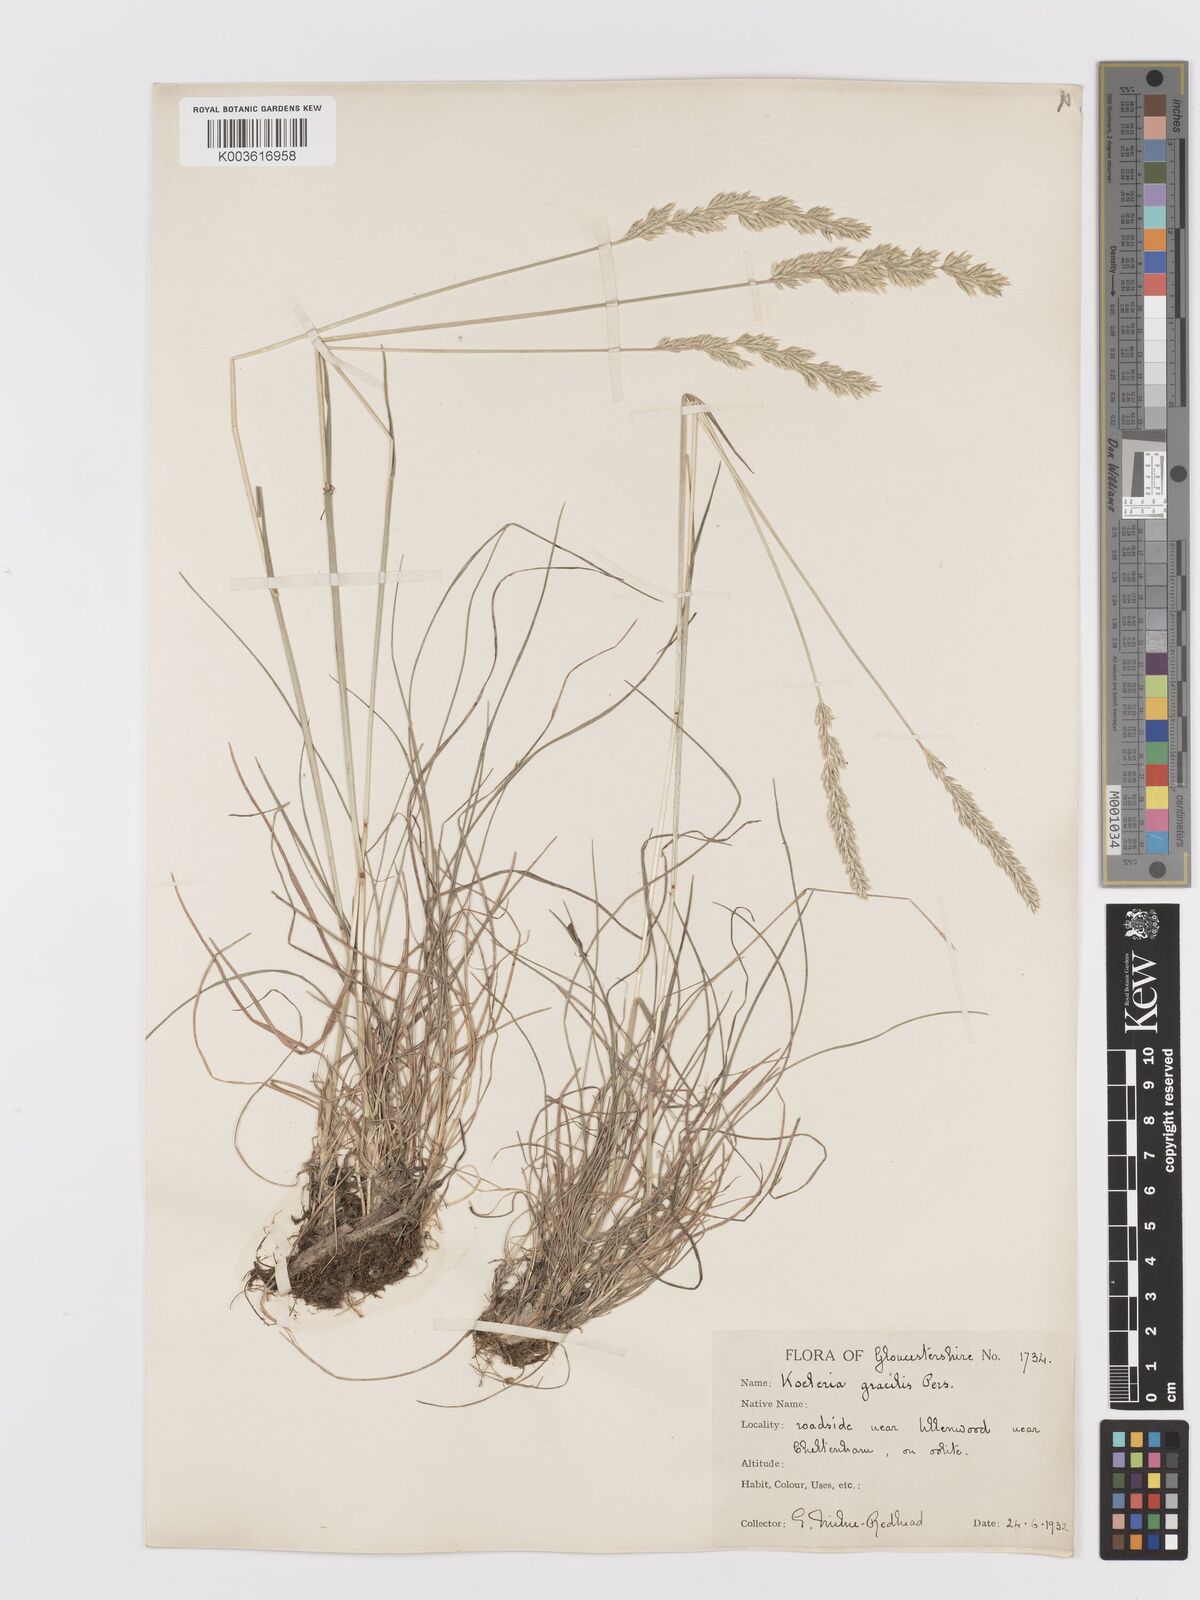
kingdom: Plantae
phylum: Tracheophyta
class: Liliopsida
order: Poales
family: Poaceae
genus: Koeleria
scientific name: Koeleria macrantha
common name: Crested hair-grass
